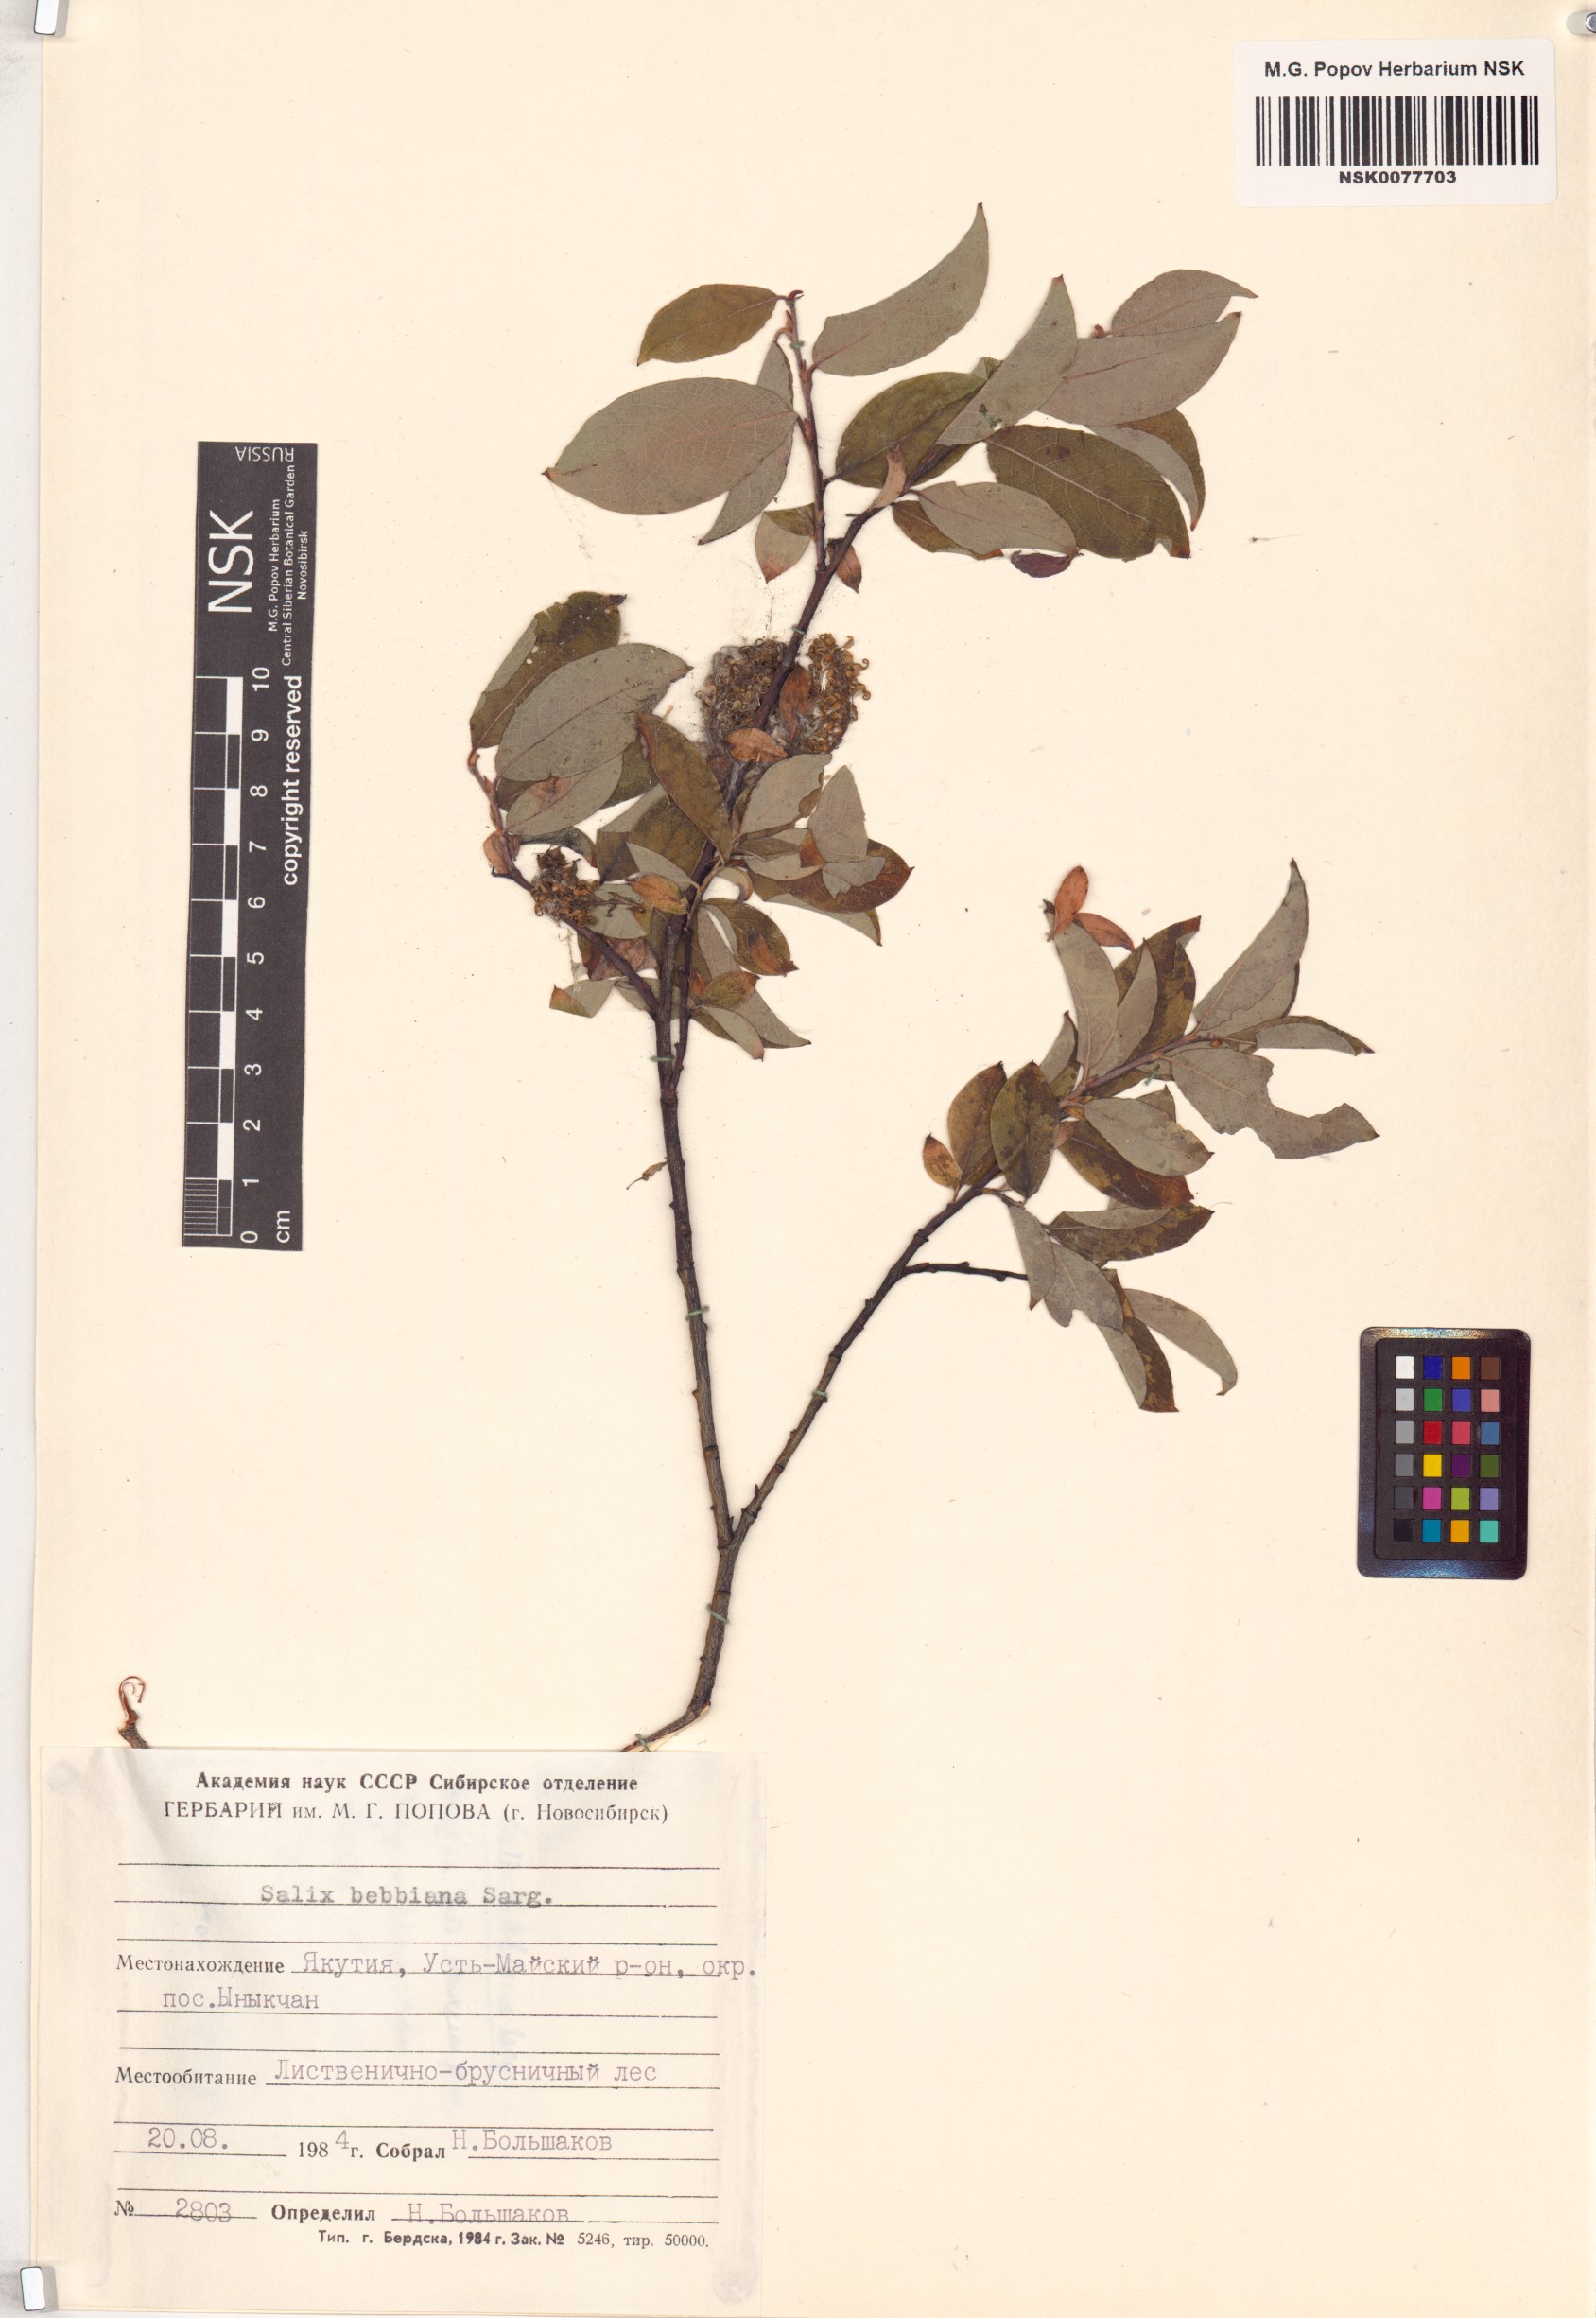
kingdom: Plantae
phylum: Tracheophyta
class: Magnoliopsida
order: Malpighiales
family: Salicaceae
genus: Salix
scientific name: Salix bebbiana
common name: Bebb's willow
